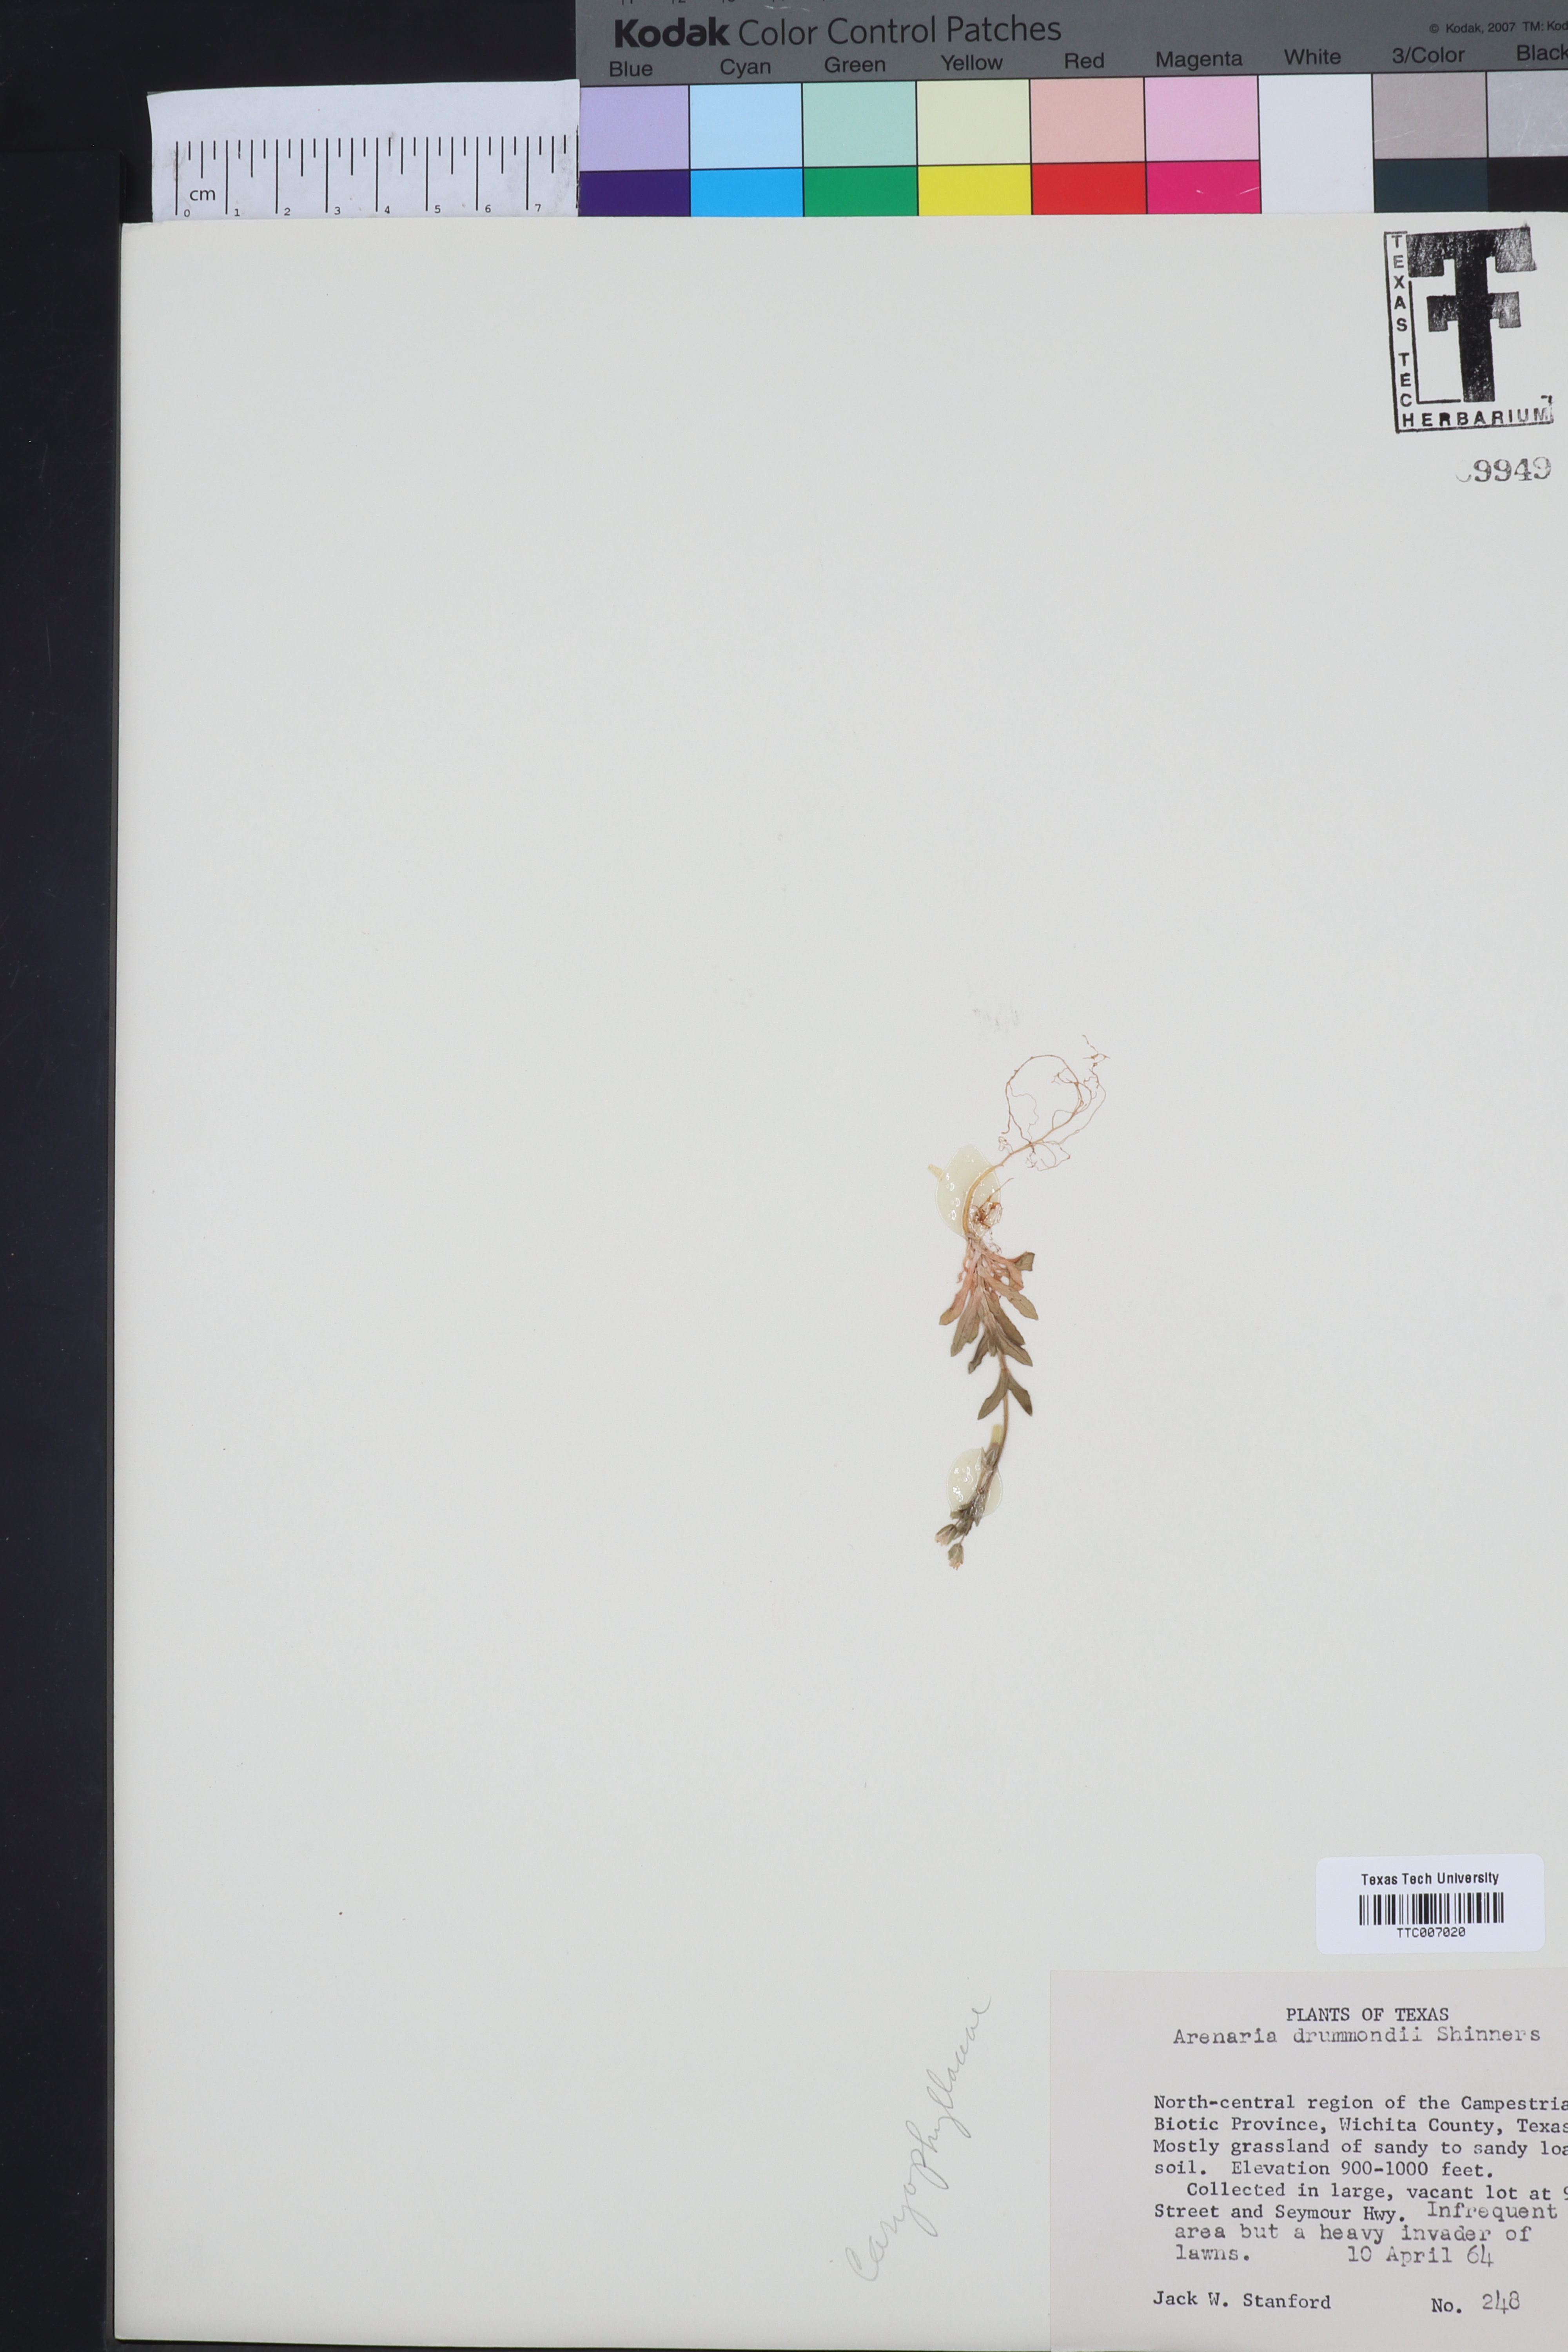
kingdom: Plantae
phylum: Tracheophyta
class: Magnoliopsida
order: Caryophyllales
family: Caryophyllaceae
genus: Geocarpon
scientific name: Geocarpon nuttallii
